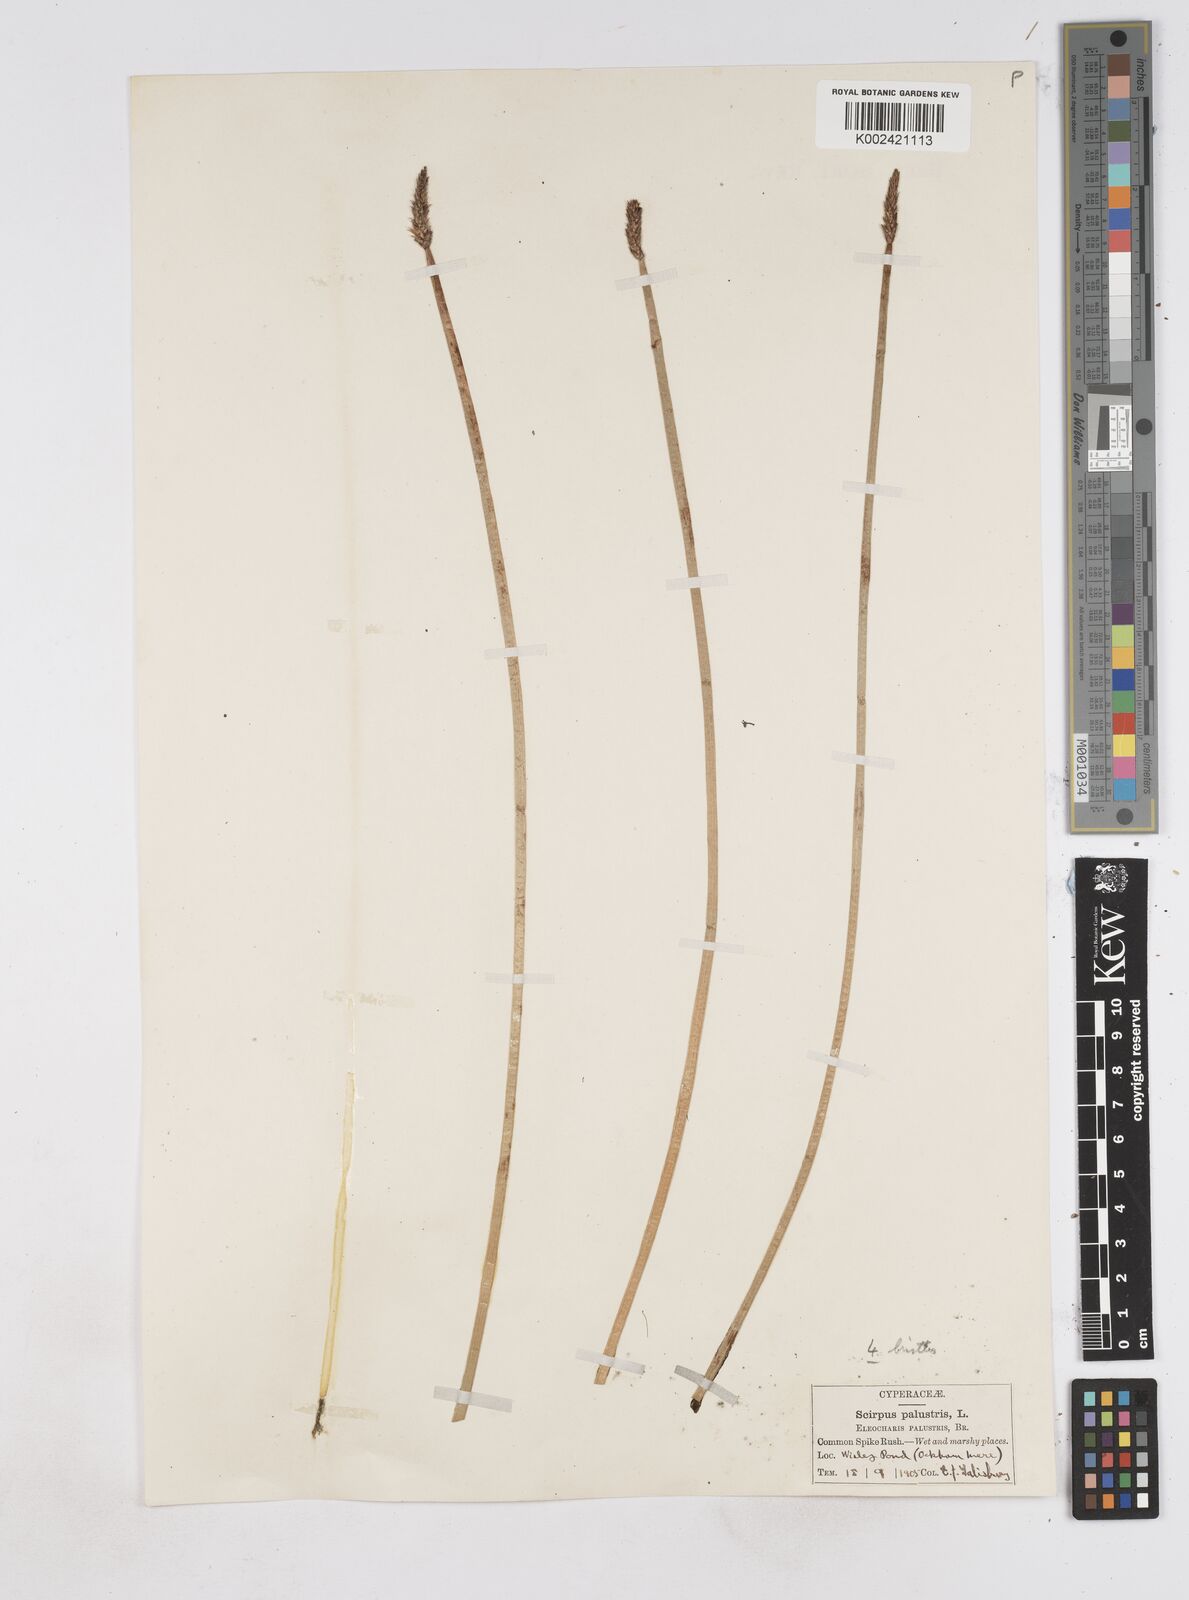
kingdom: Plantae
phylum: Tracheophyta
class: Liliopsida
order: Poales
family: Cyperaceae
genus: Eleocharis
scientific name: Eleocharis palustris
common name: Common spike-rush
